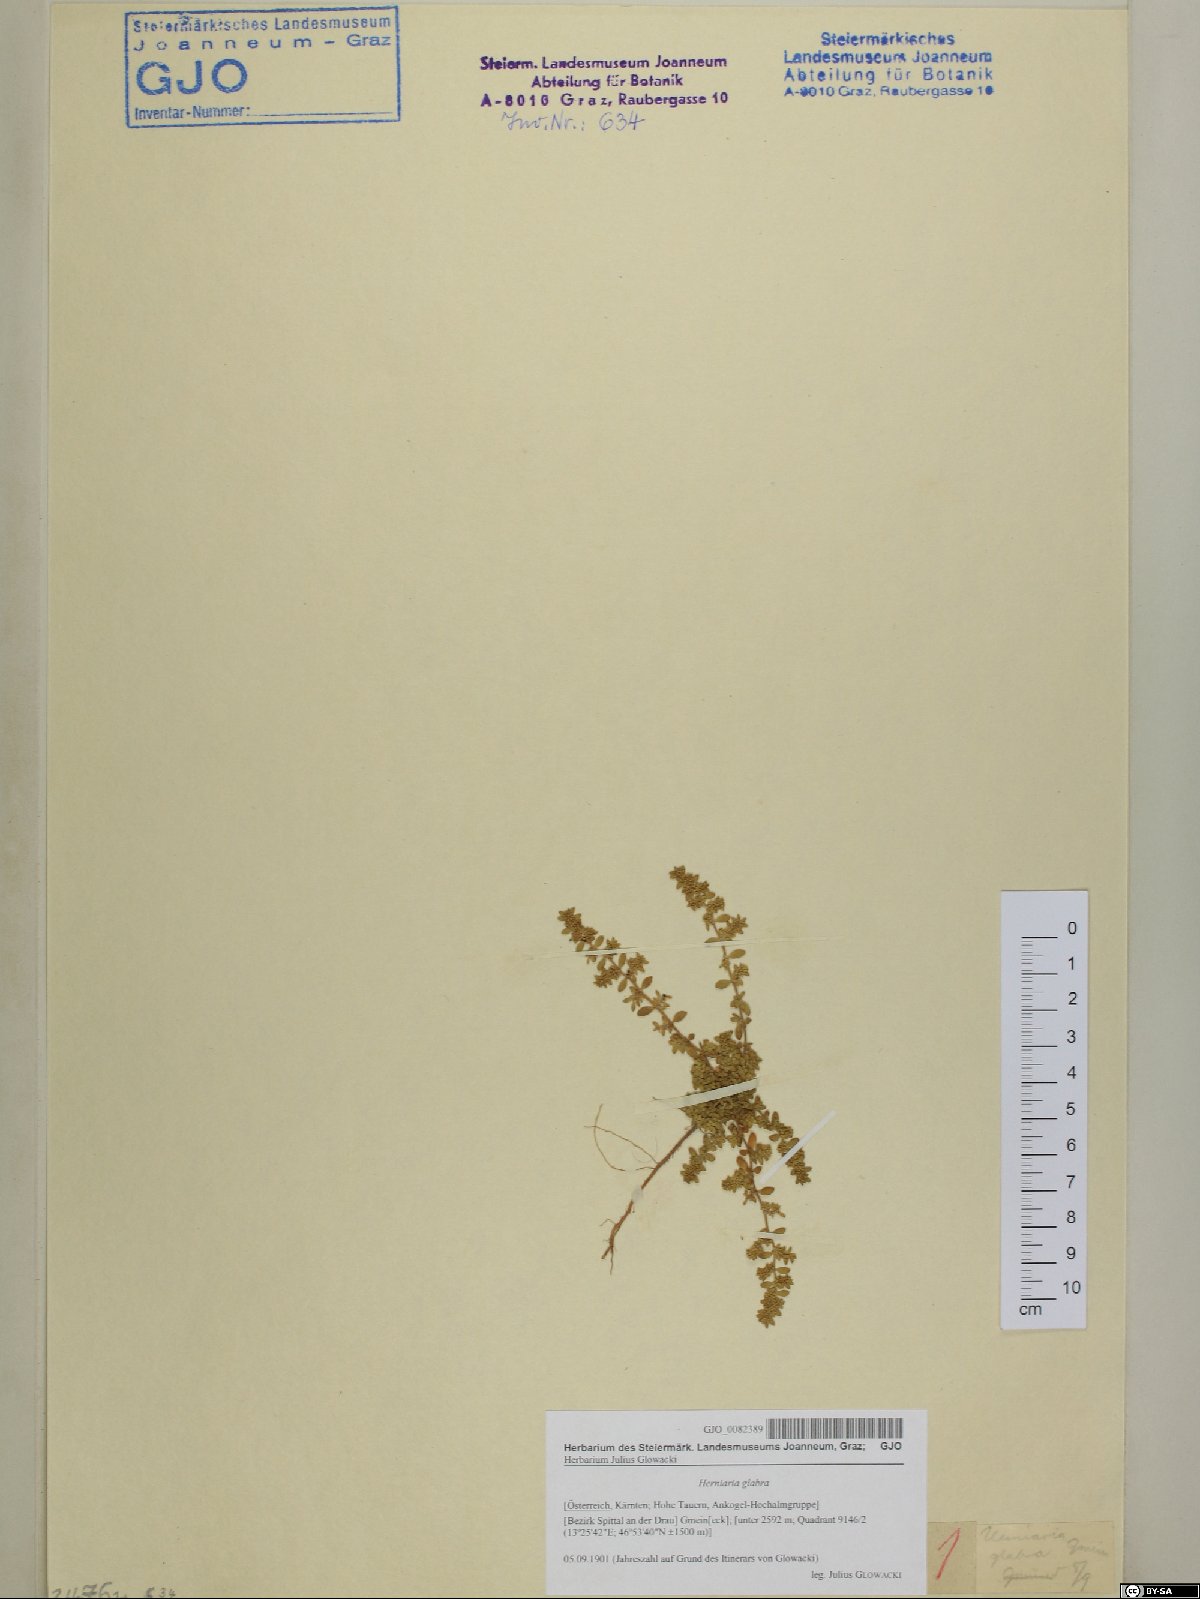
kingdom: Plantae
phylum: Tracheophyta
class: Magnoliopsida
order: Caryophyllales
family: Caryophyllaceae
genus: Herniaria
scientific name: Herniaria glabra
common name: Smooth rupturewort
